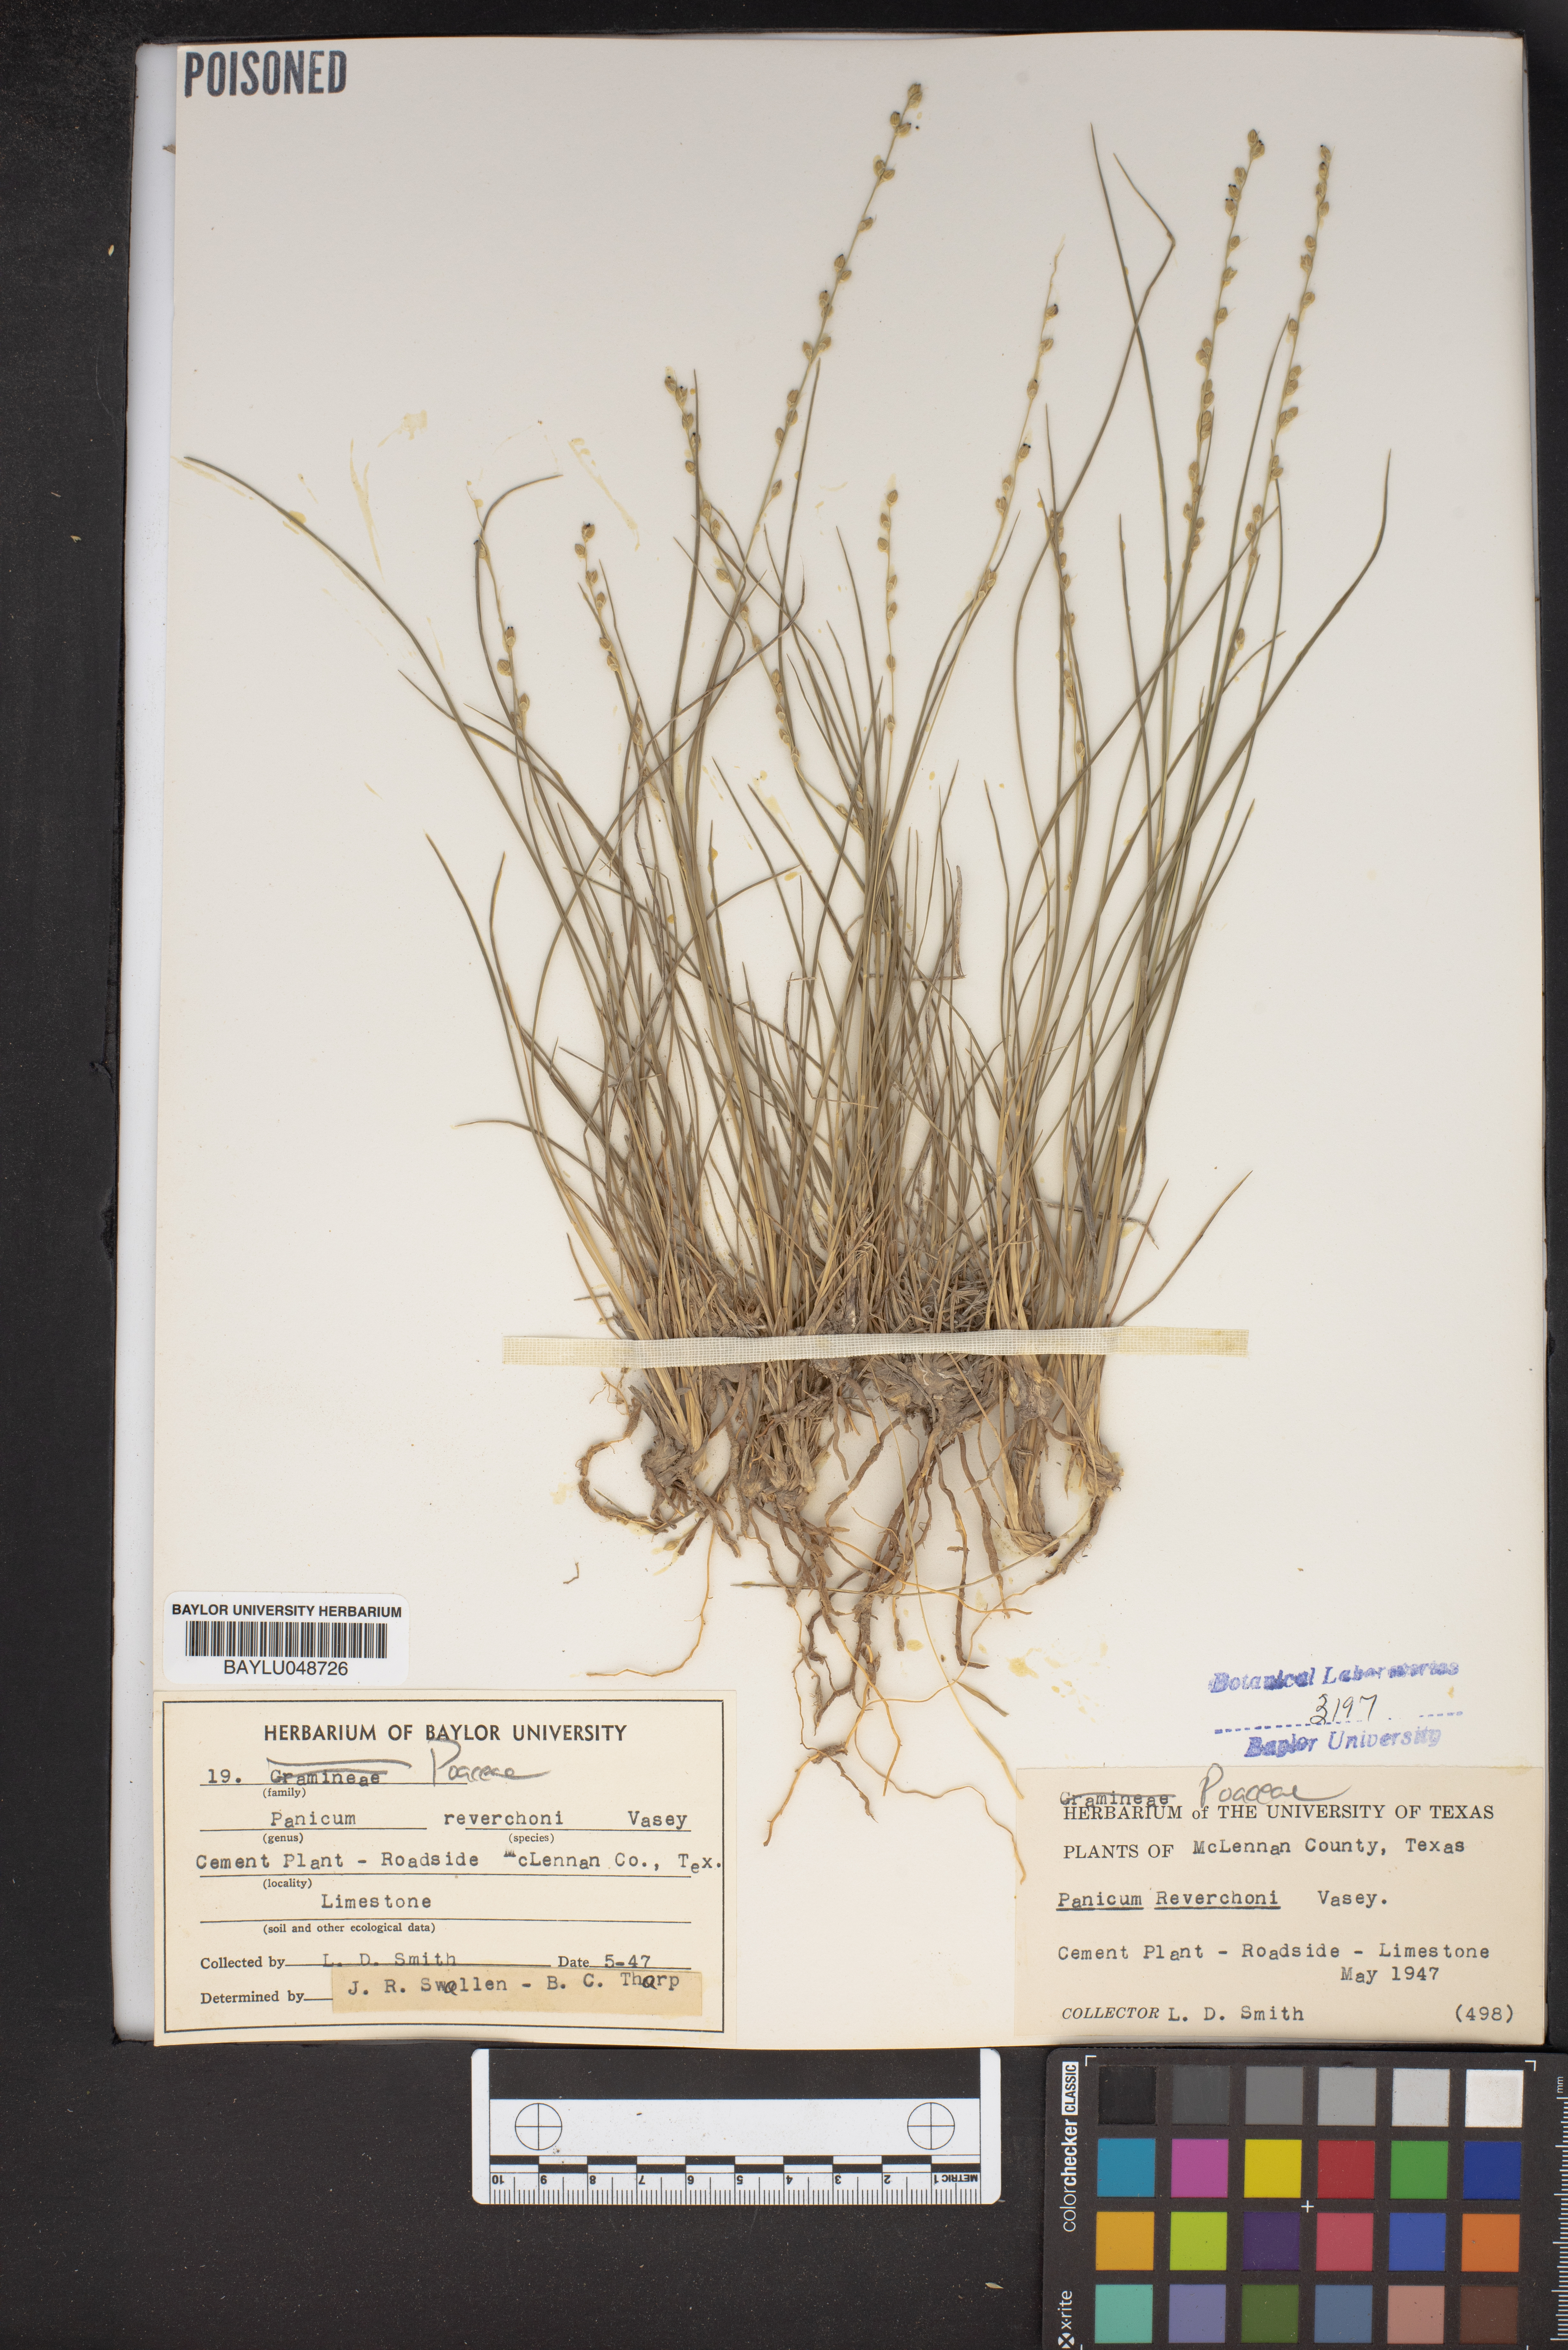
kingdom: Plantae
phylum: Tracheophyta
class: Liliopsida
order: Poales
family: Poaceae
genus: Setaria
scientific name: Setaria reverchonii
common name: Reverchon's bristle grass
